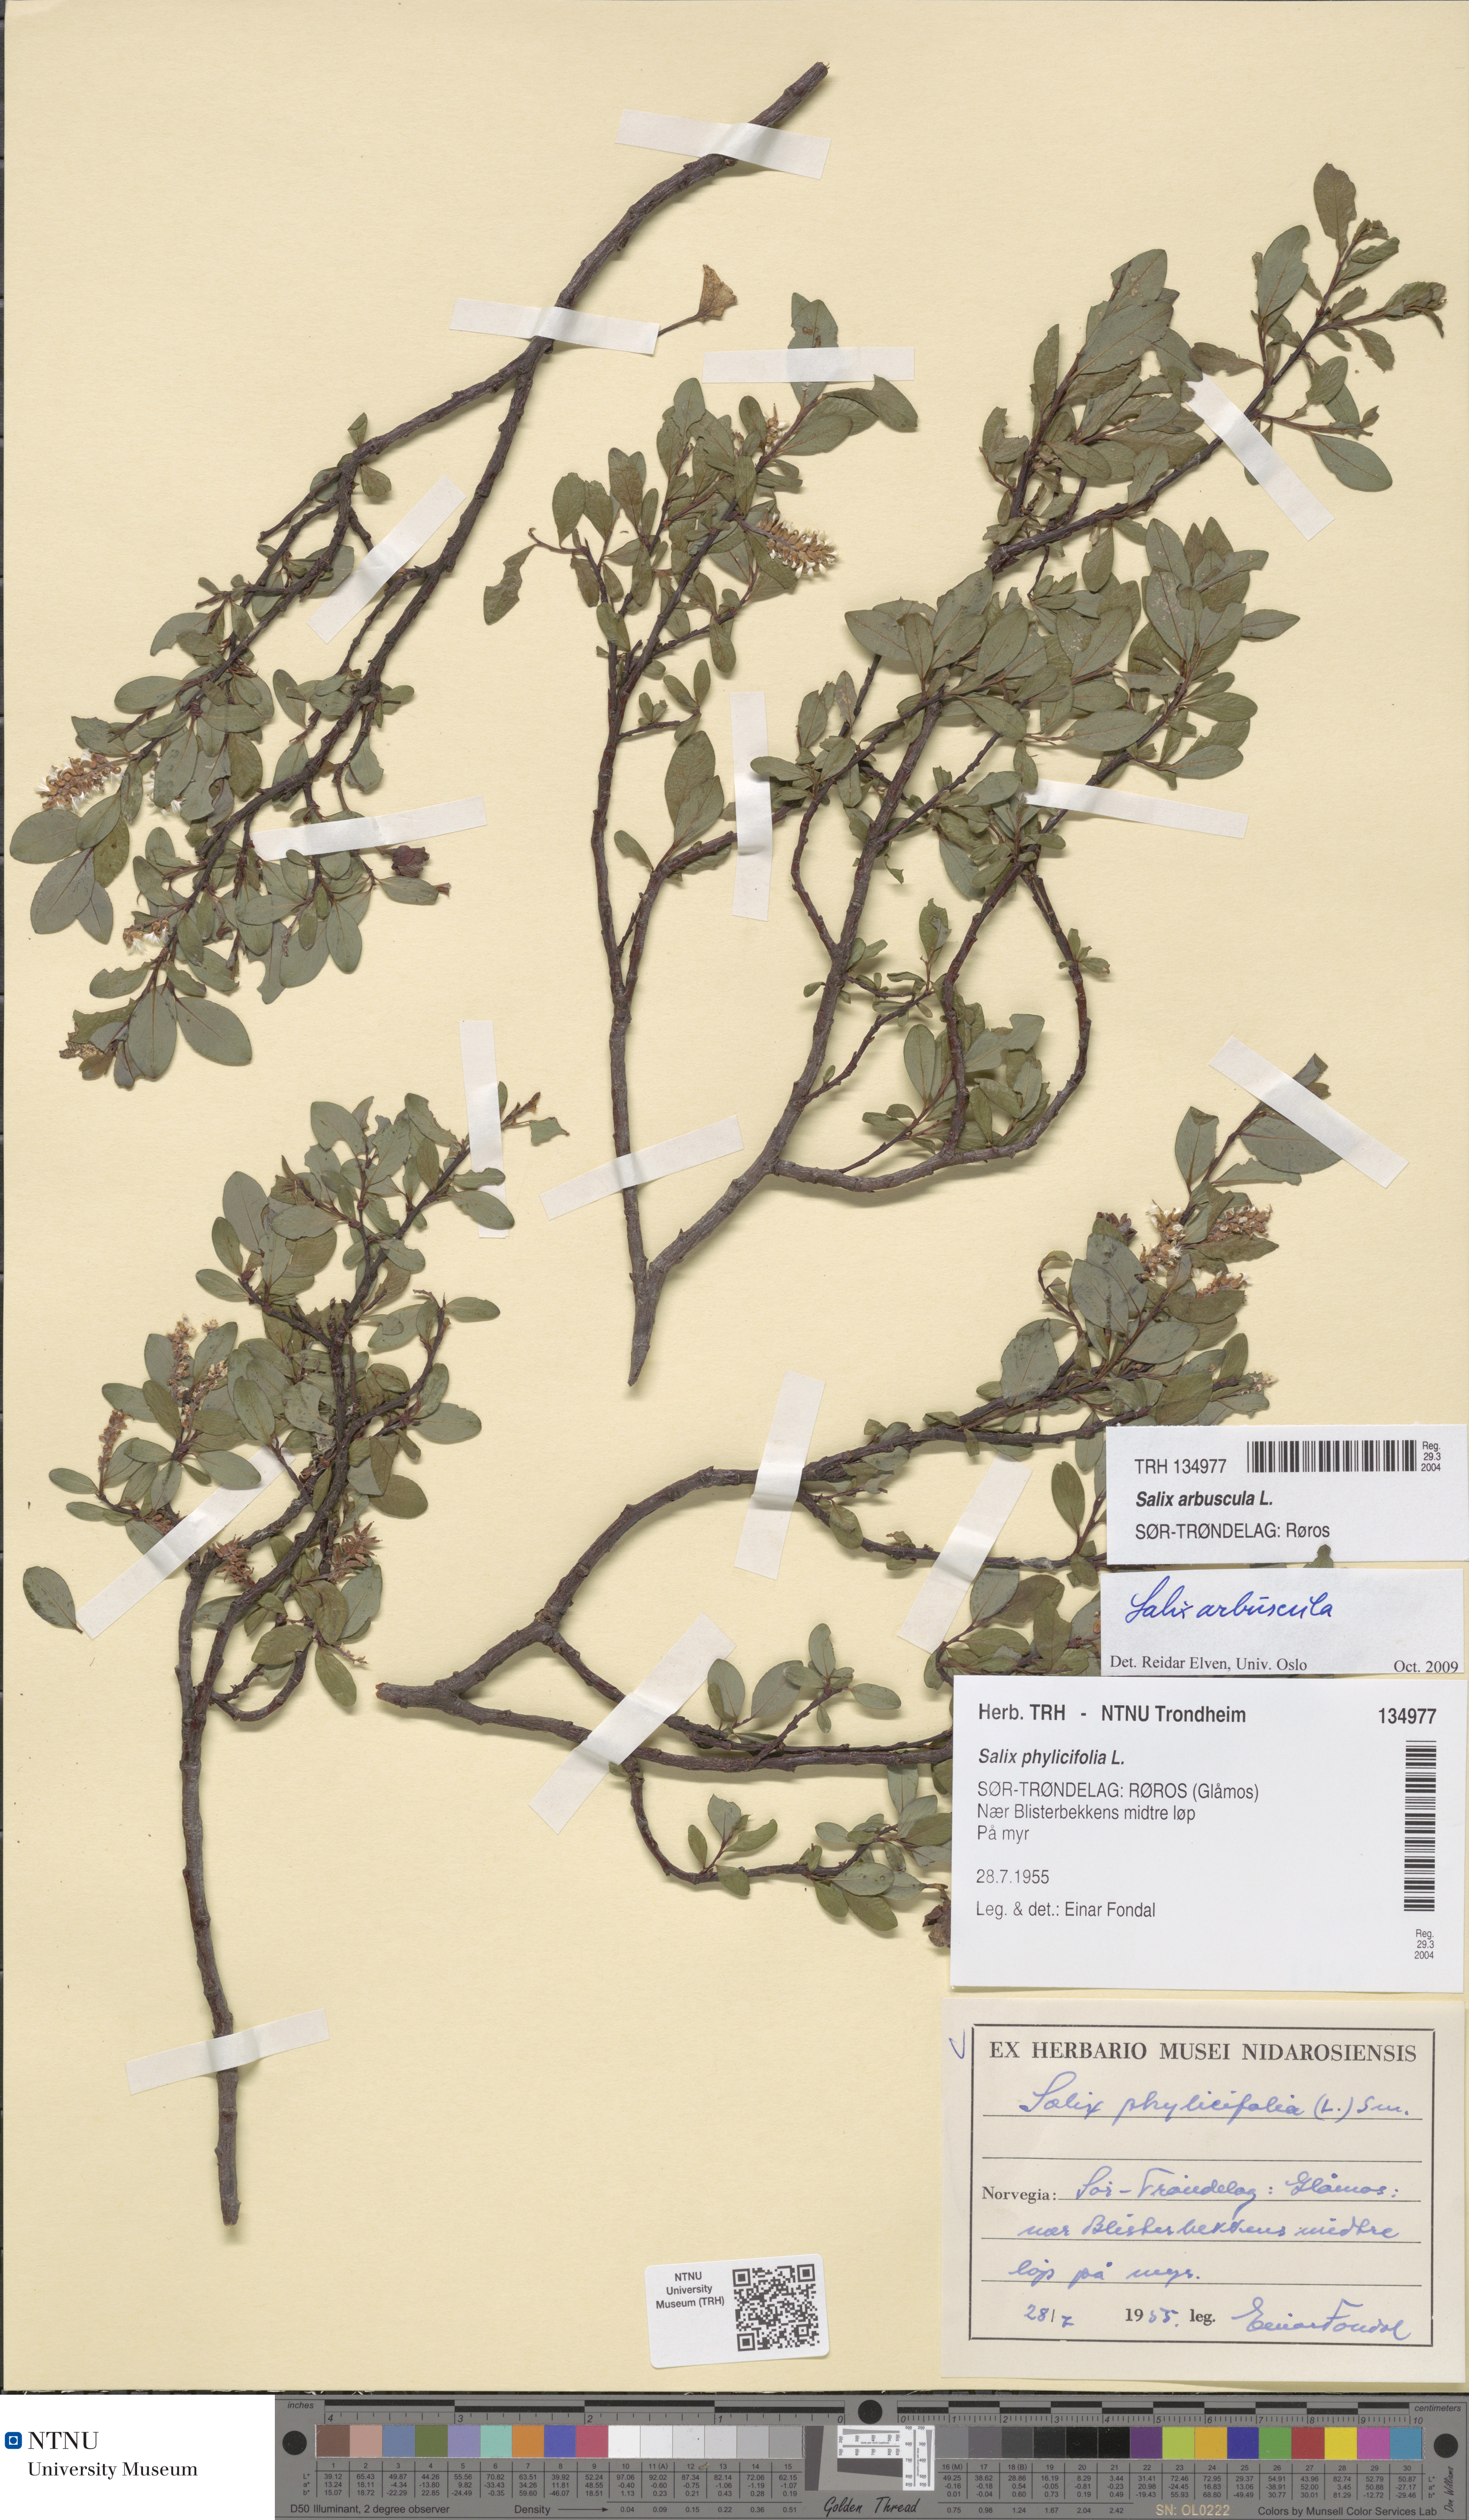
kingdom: Plantae
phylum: Tracheophyta
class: Magnoliopsida
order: Malpighiales
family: Salicaceae
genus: Salix
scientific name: Salix arbuscula
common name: Mountain willow
